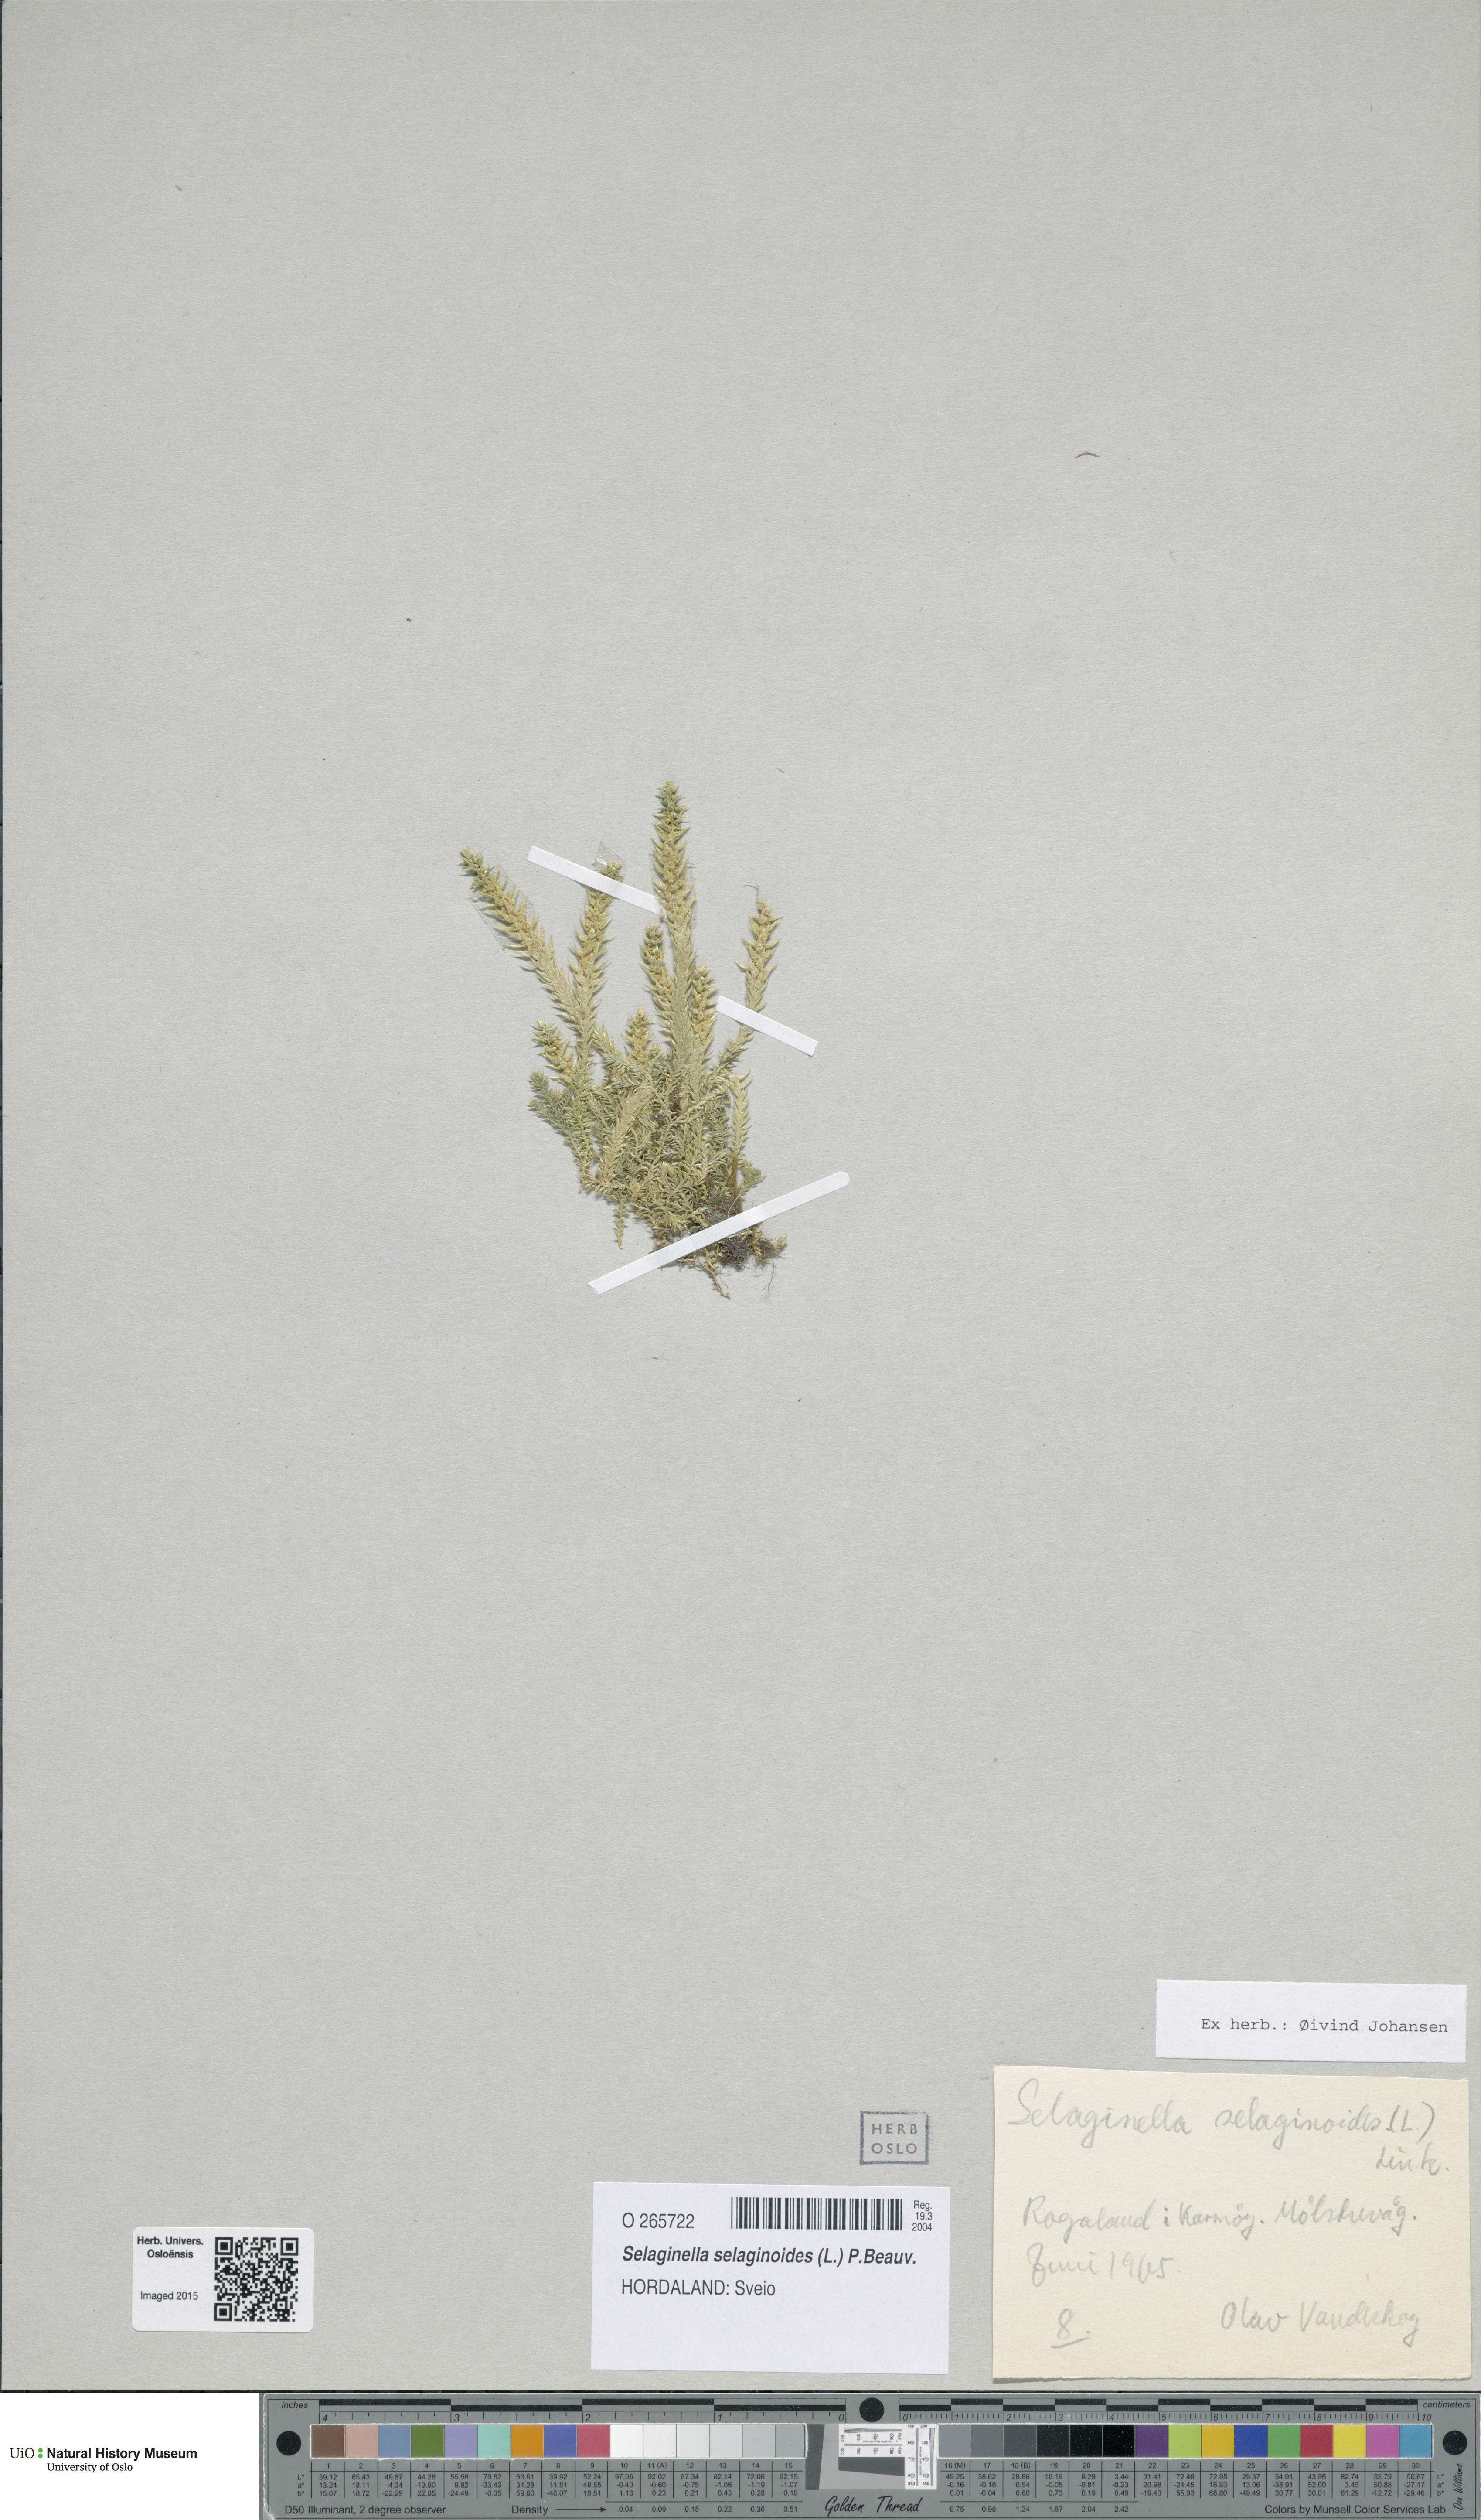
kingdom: Plantae
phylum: Tracheophyta
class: Lycopodiopsida
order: Selaginellales
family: Selaginellaceae
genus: Selaginella
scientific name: Selaginella selaginoides
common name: Prickly mountain-moss
